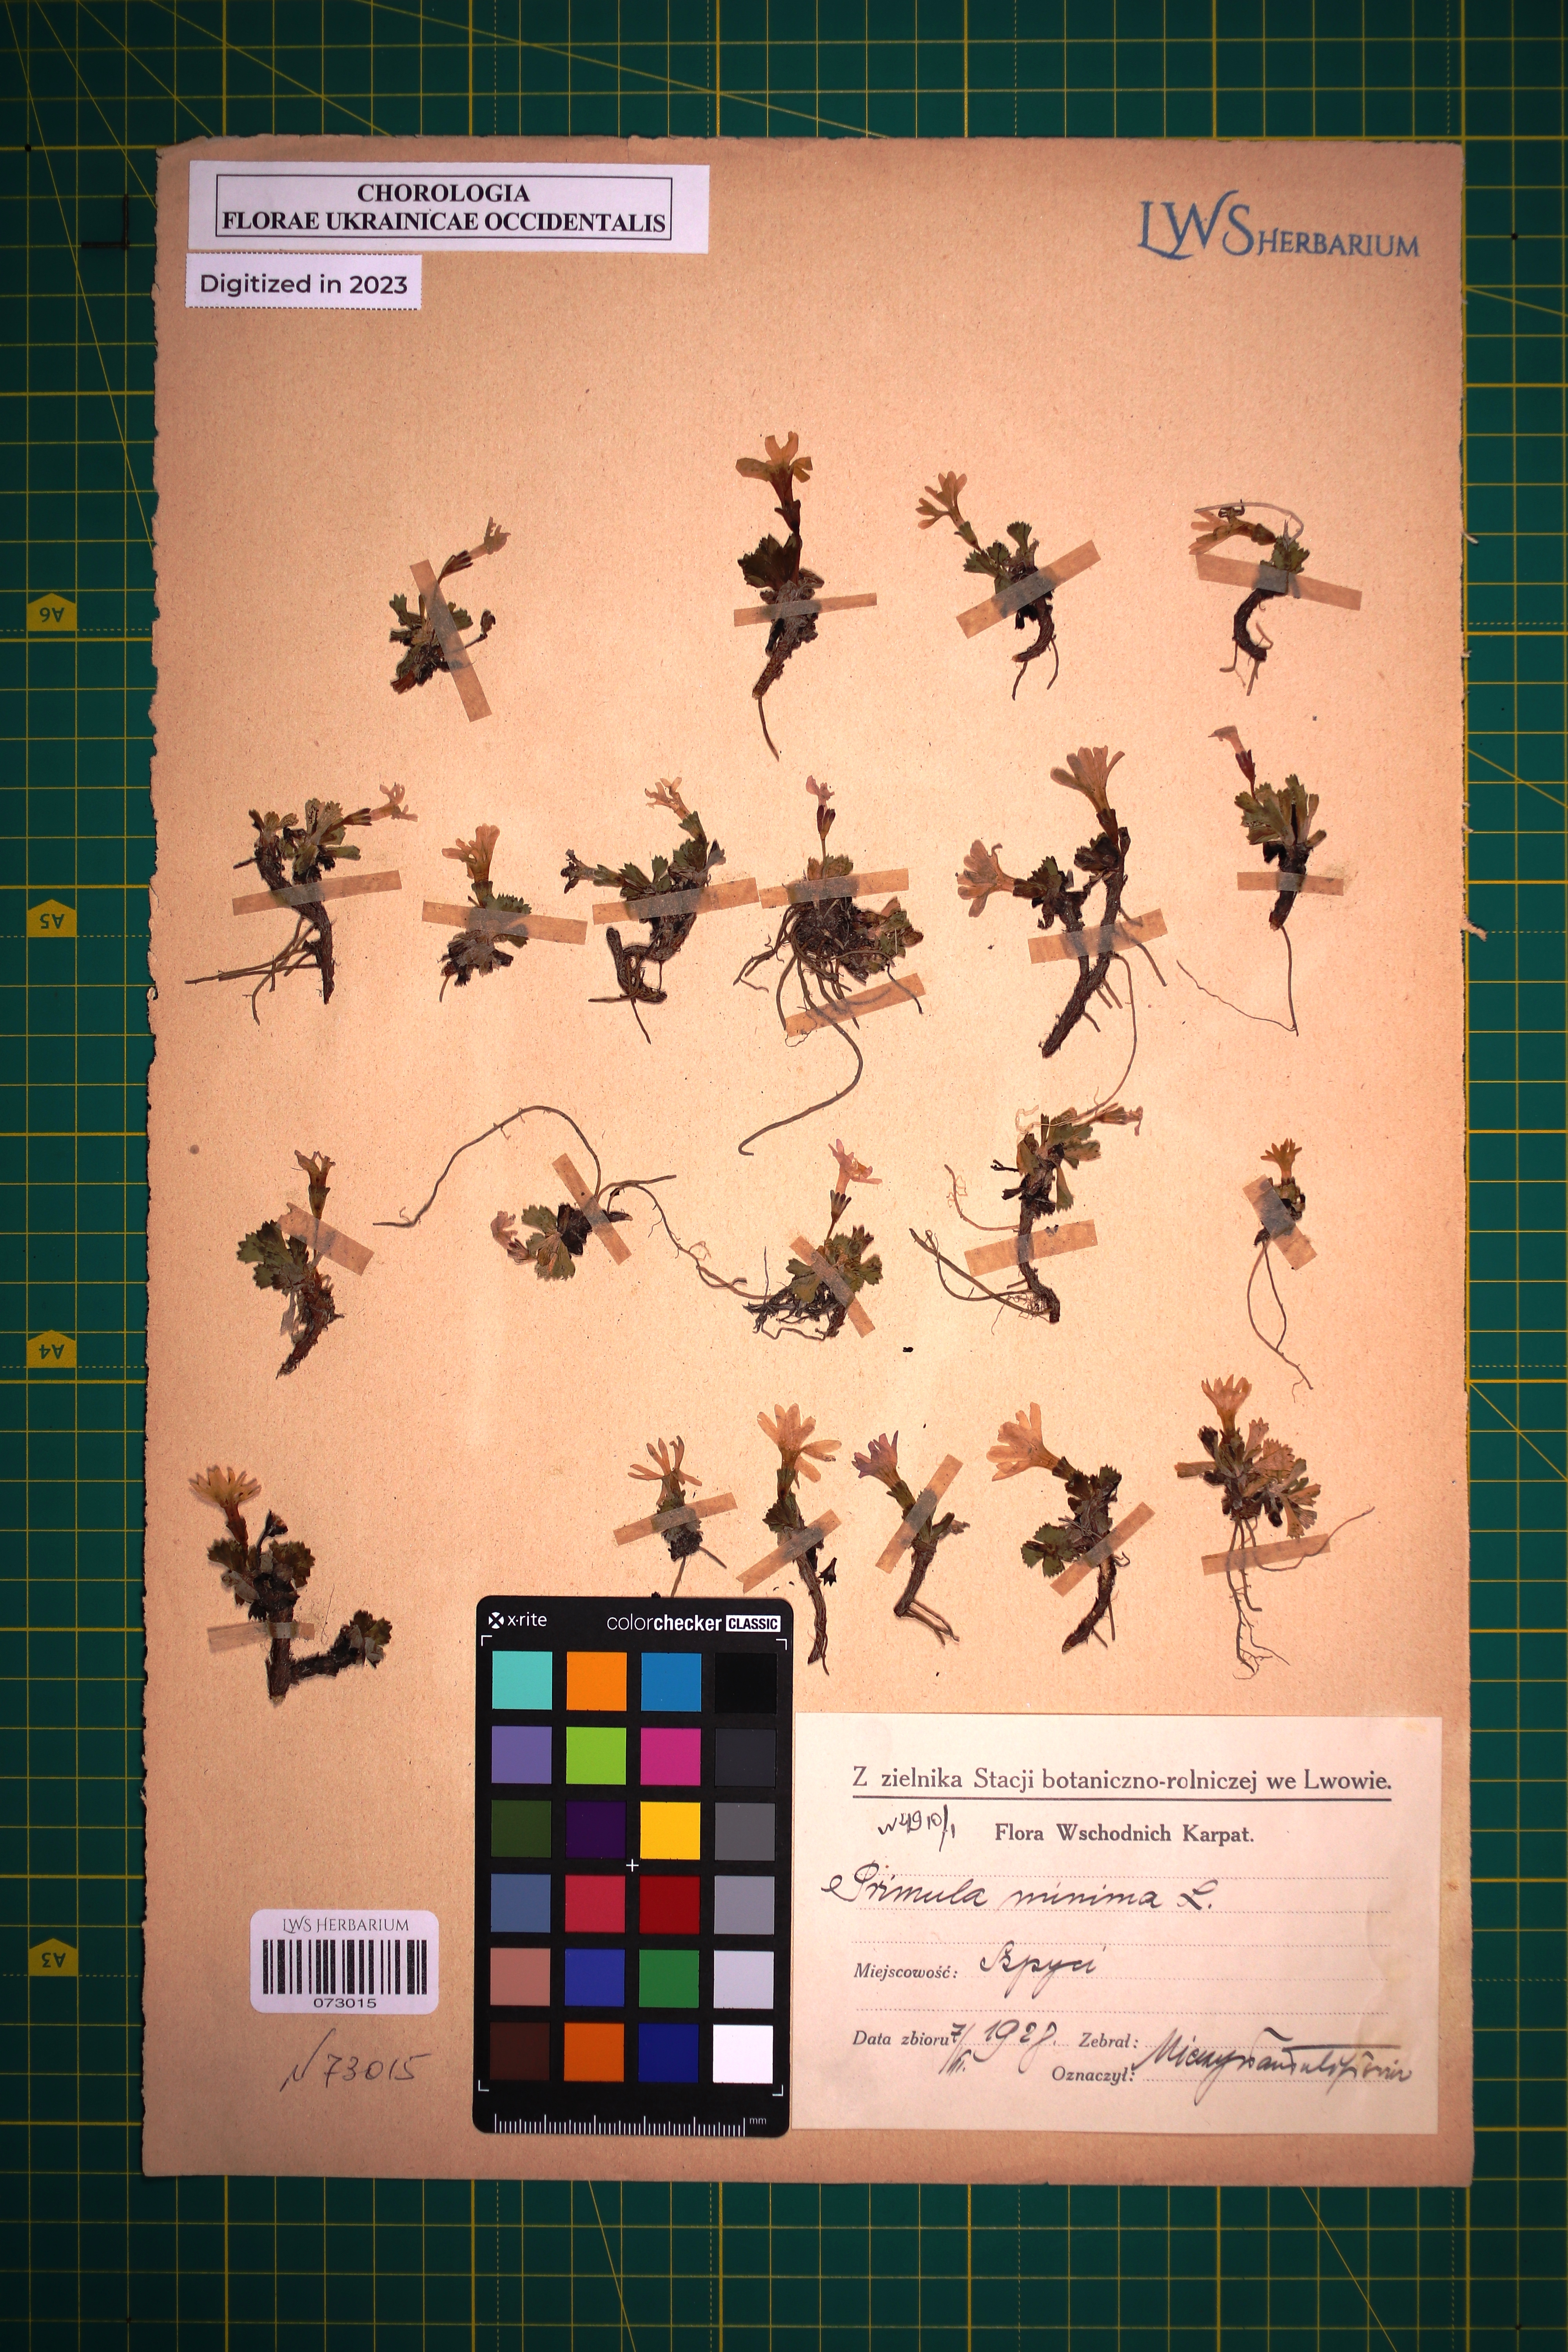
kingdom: Plantae
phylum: Tracheophyta
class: Magnoliopsida
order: Ericales
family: Primulaceae
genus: Primula
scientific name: Primula minima
